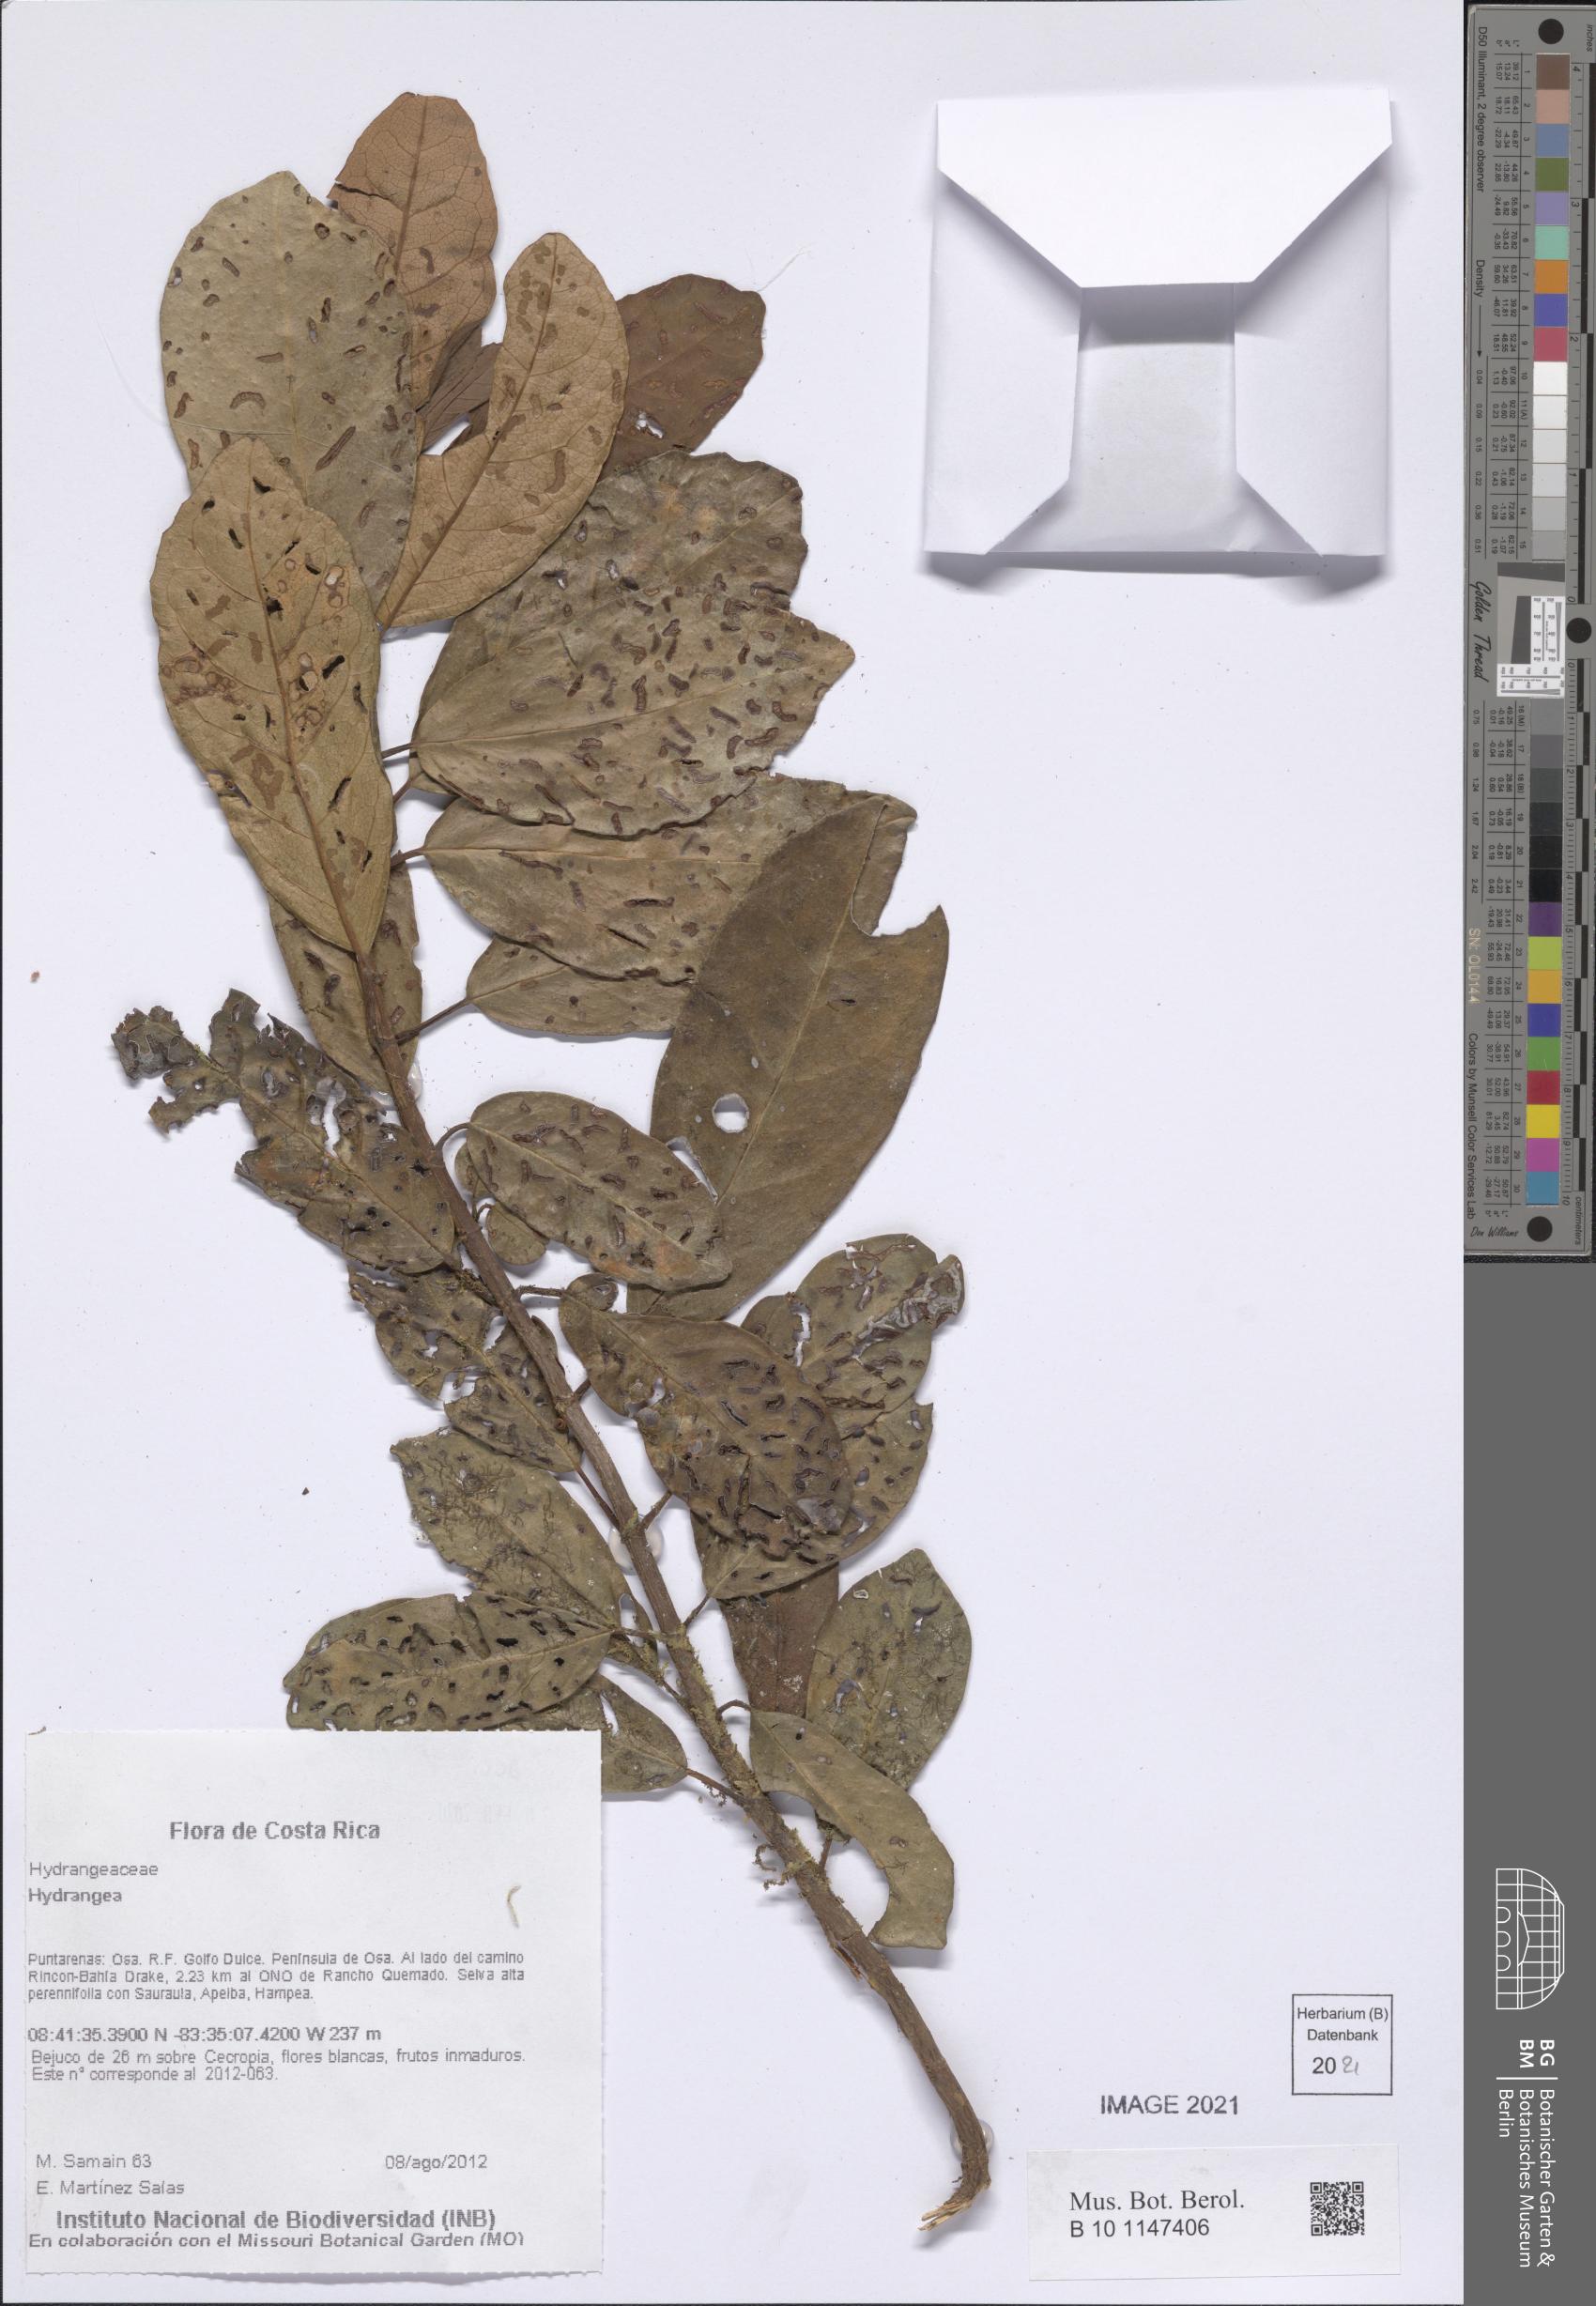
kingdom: Plantae
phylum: Tracheophyta
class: Magnoliopsida
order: Cornales
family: Hydrangeaceae
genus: Hydrangea
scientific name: Hydrangea
